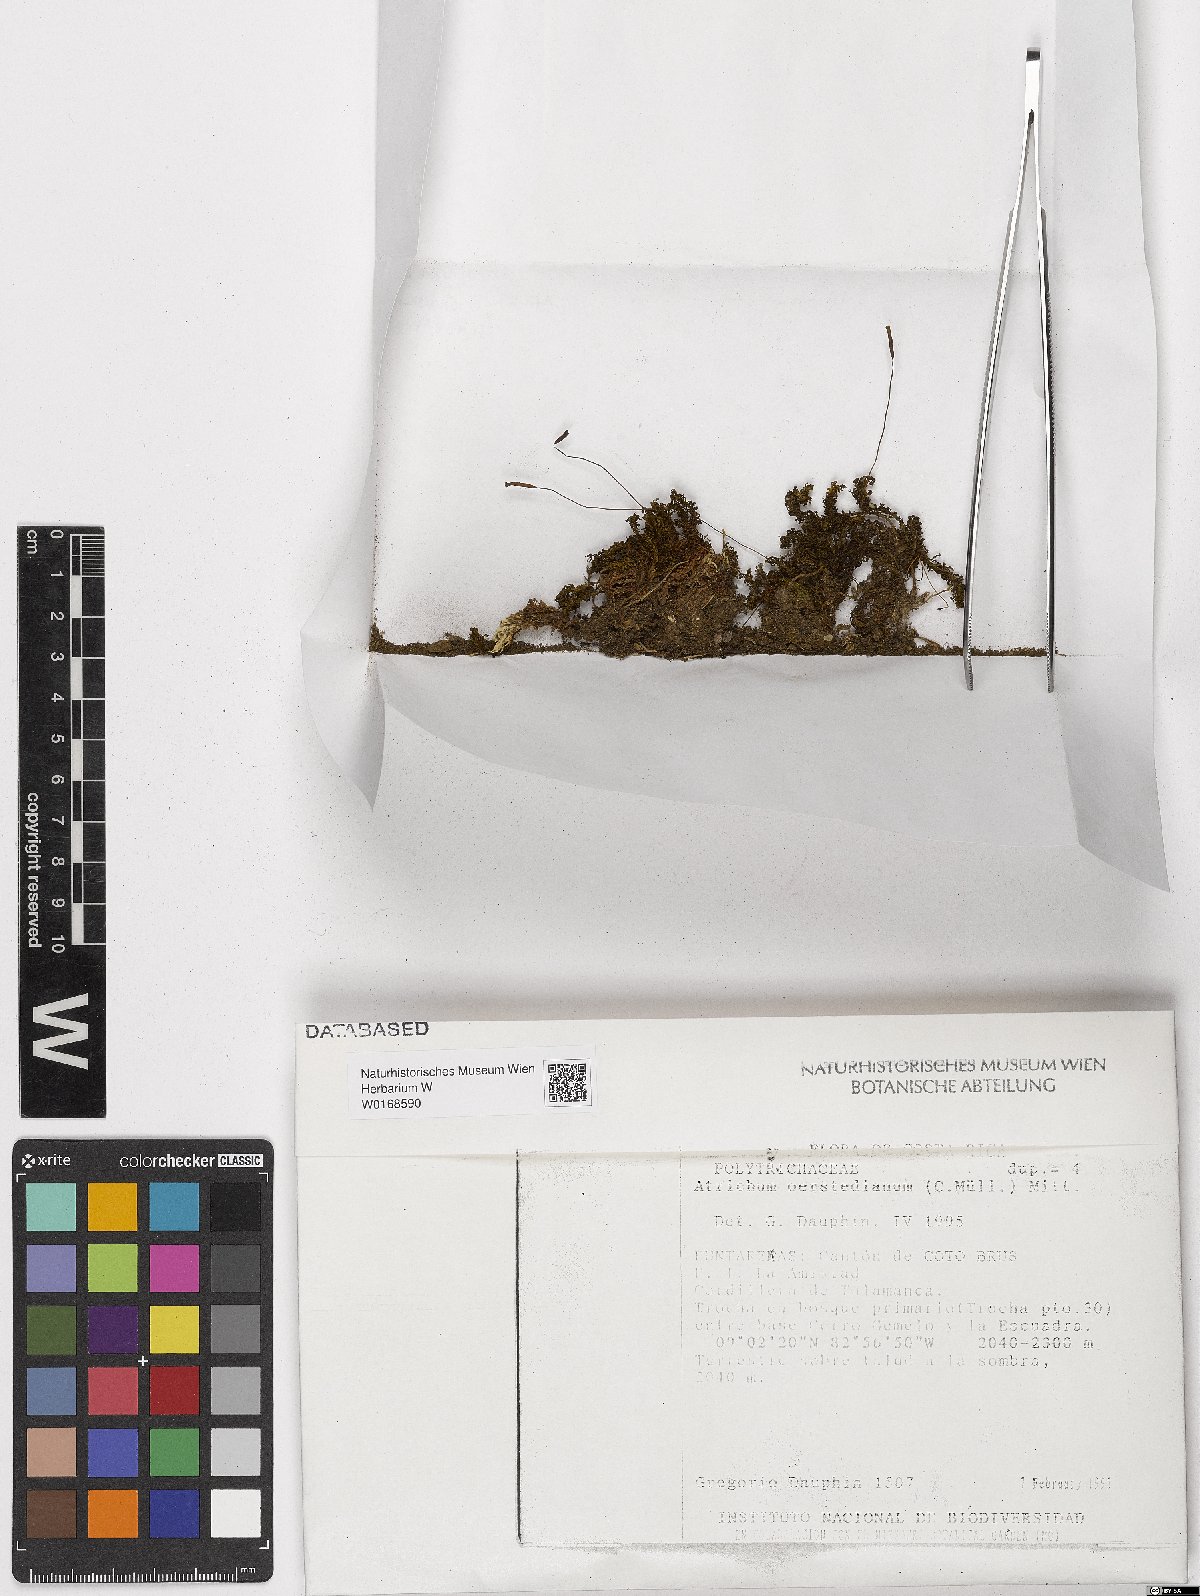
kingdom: Plantae
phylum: Bryophyta
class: Polytrichopsida
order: Polytrichales
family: Polytrichaceae
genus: Atrichum
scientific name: Atrichum oerstedianum
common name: Oersted's atrichum moss
